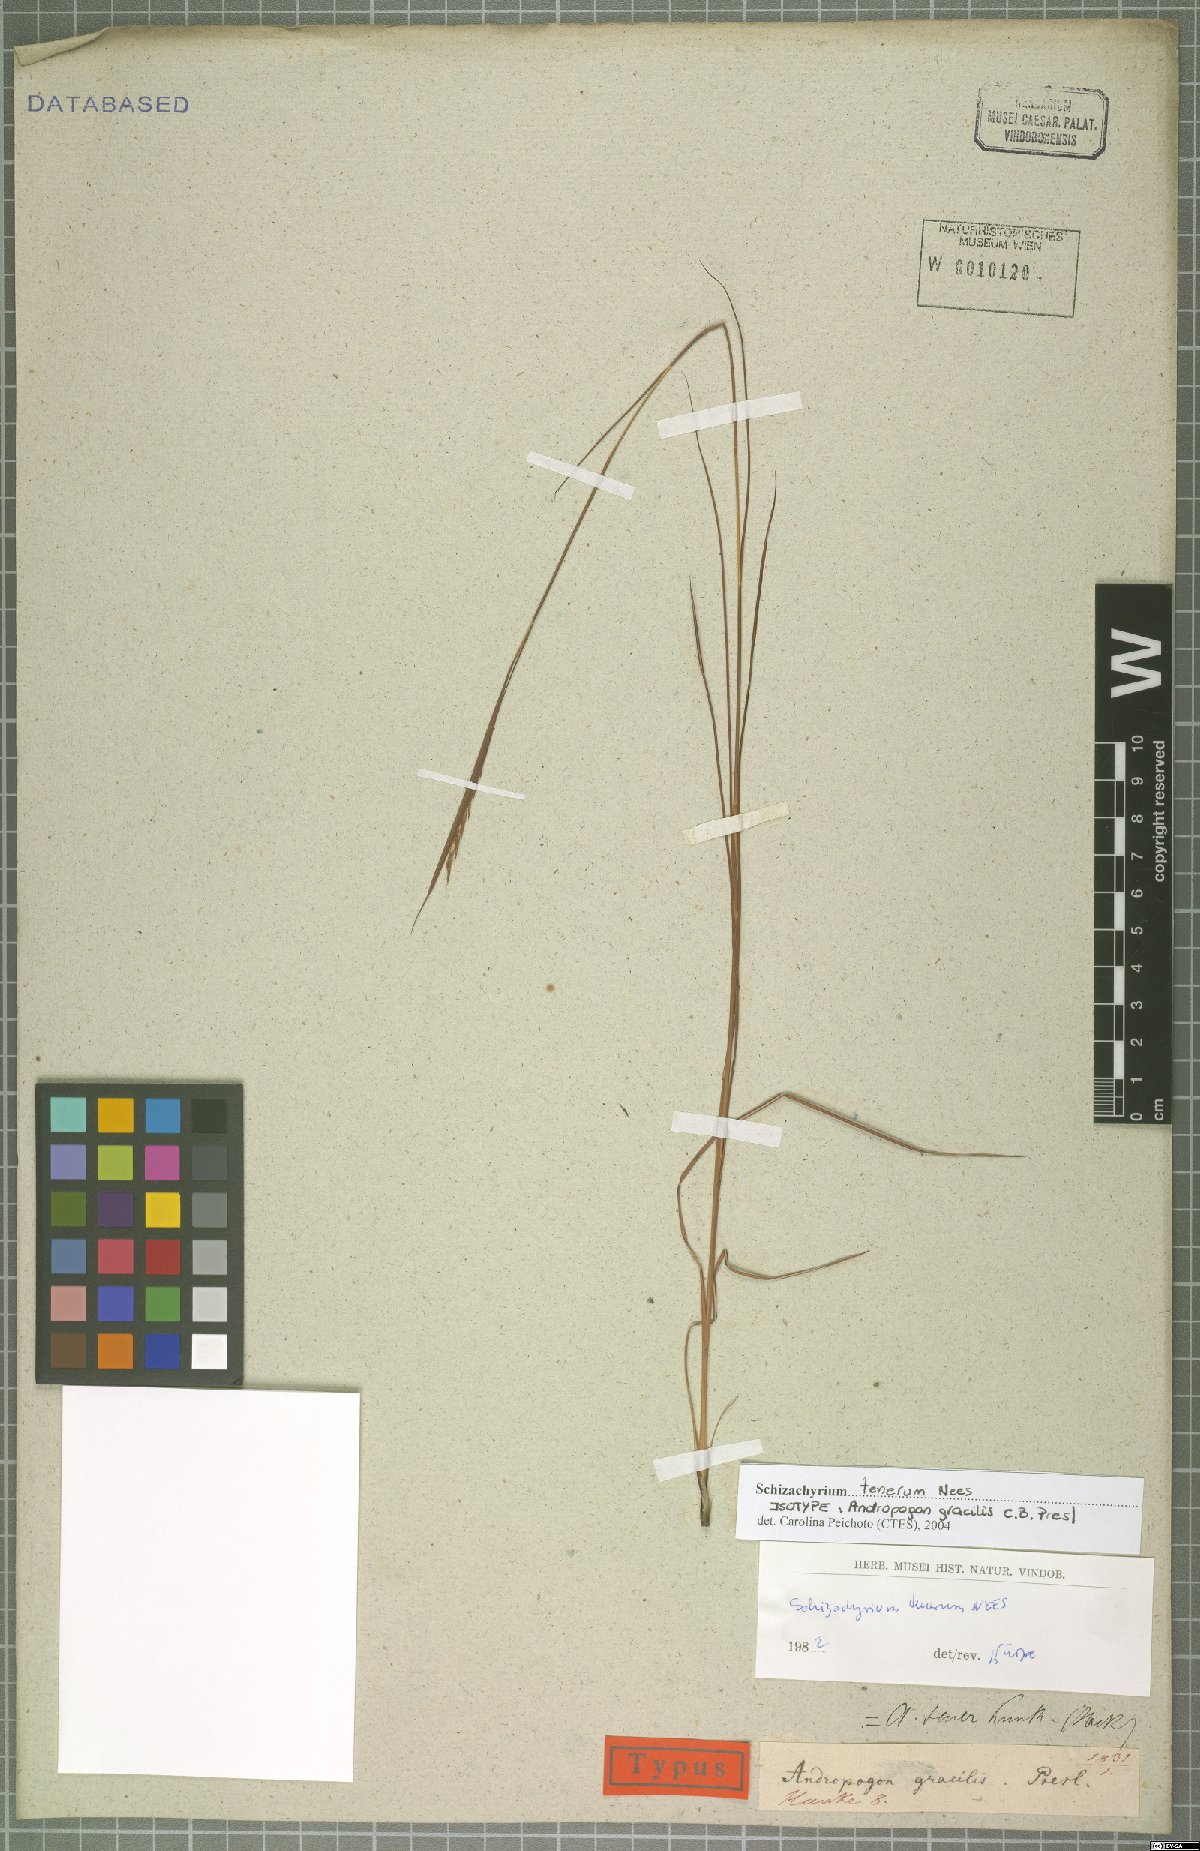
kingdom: Plantae
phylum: Tracheophyta
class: Liliopsida
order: Poales
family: Poaceae
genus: Andropogon
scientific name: Andropogon tener
